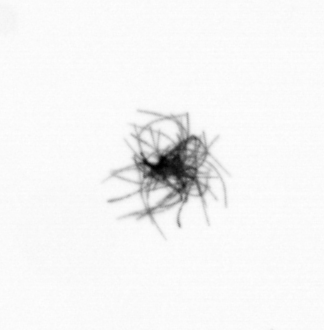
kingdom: Bacteria
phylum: Cyanobacteria
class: Cyanobacteriia
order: Cyanobacteriales
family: Microcoleaceae
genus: Trichodesmium
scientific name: Trichodesmium
